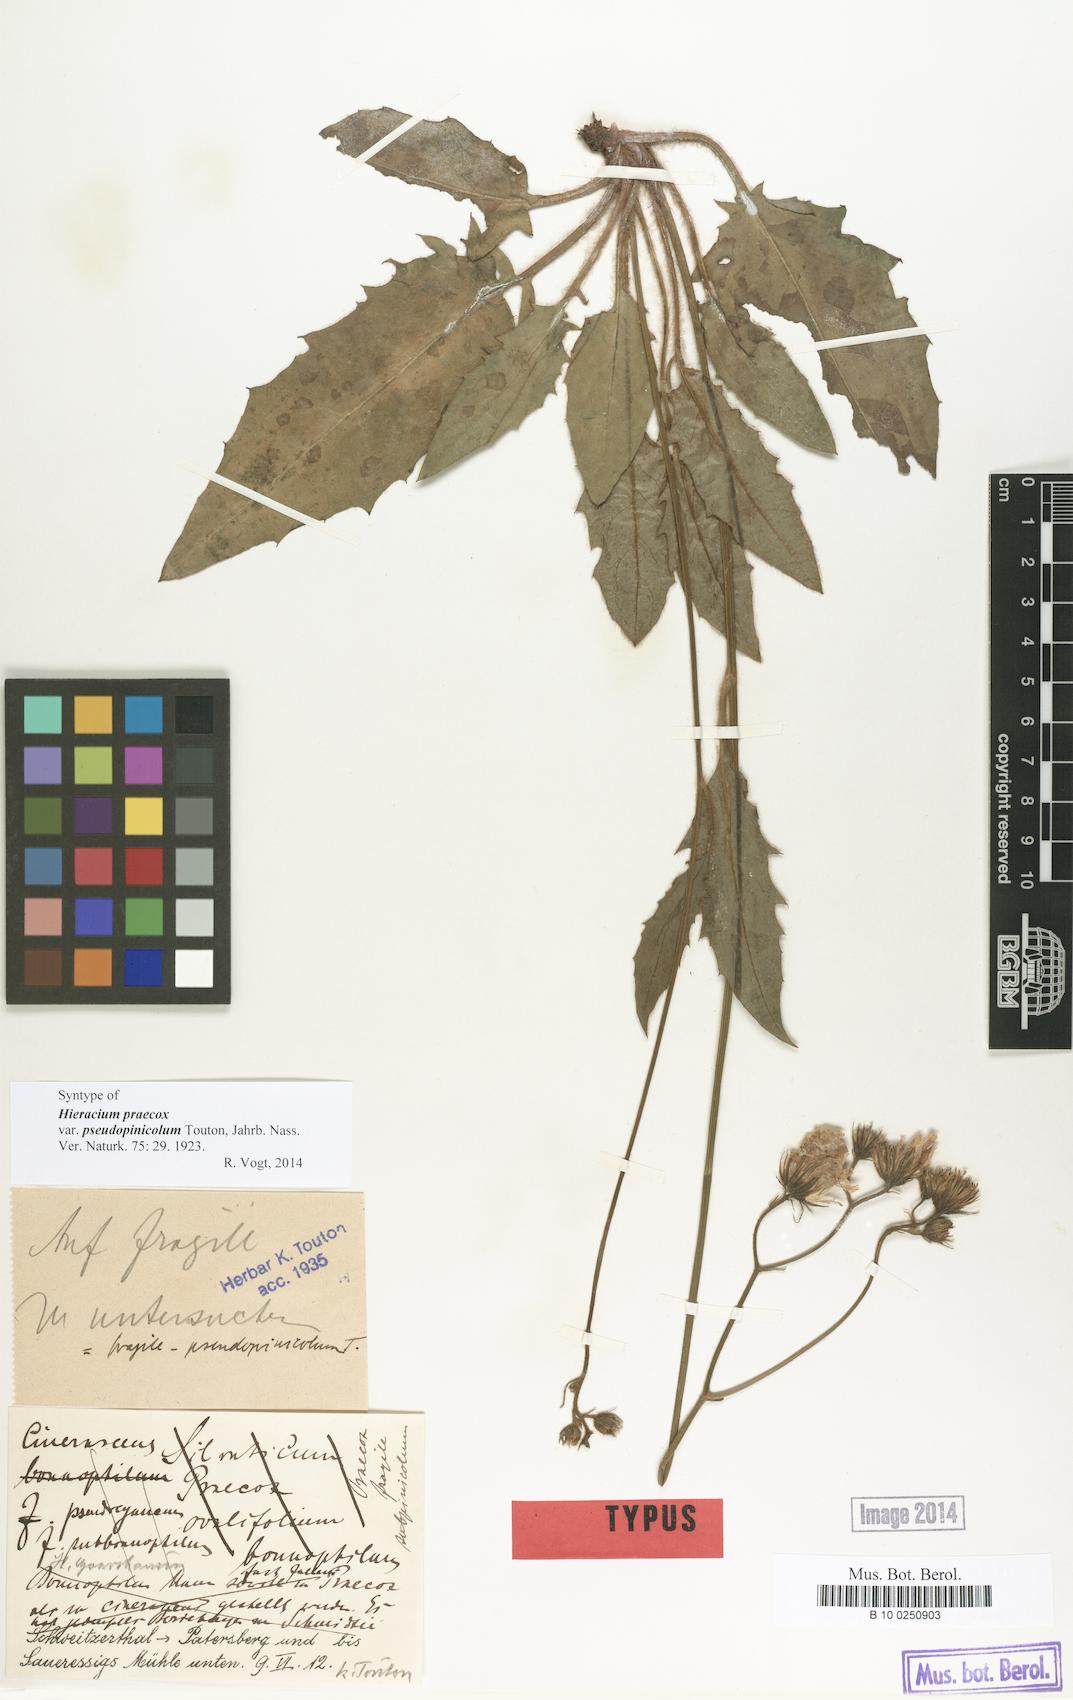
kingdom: Plantae
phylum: Tracheophyta
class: Magnoliopsida
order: Asterales
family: Asteraceae
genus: Hieracium
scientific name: Hieracium praecox
